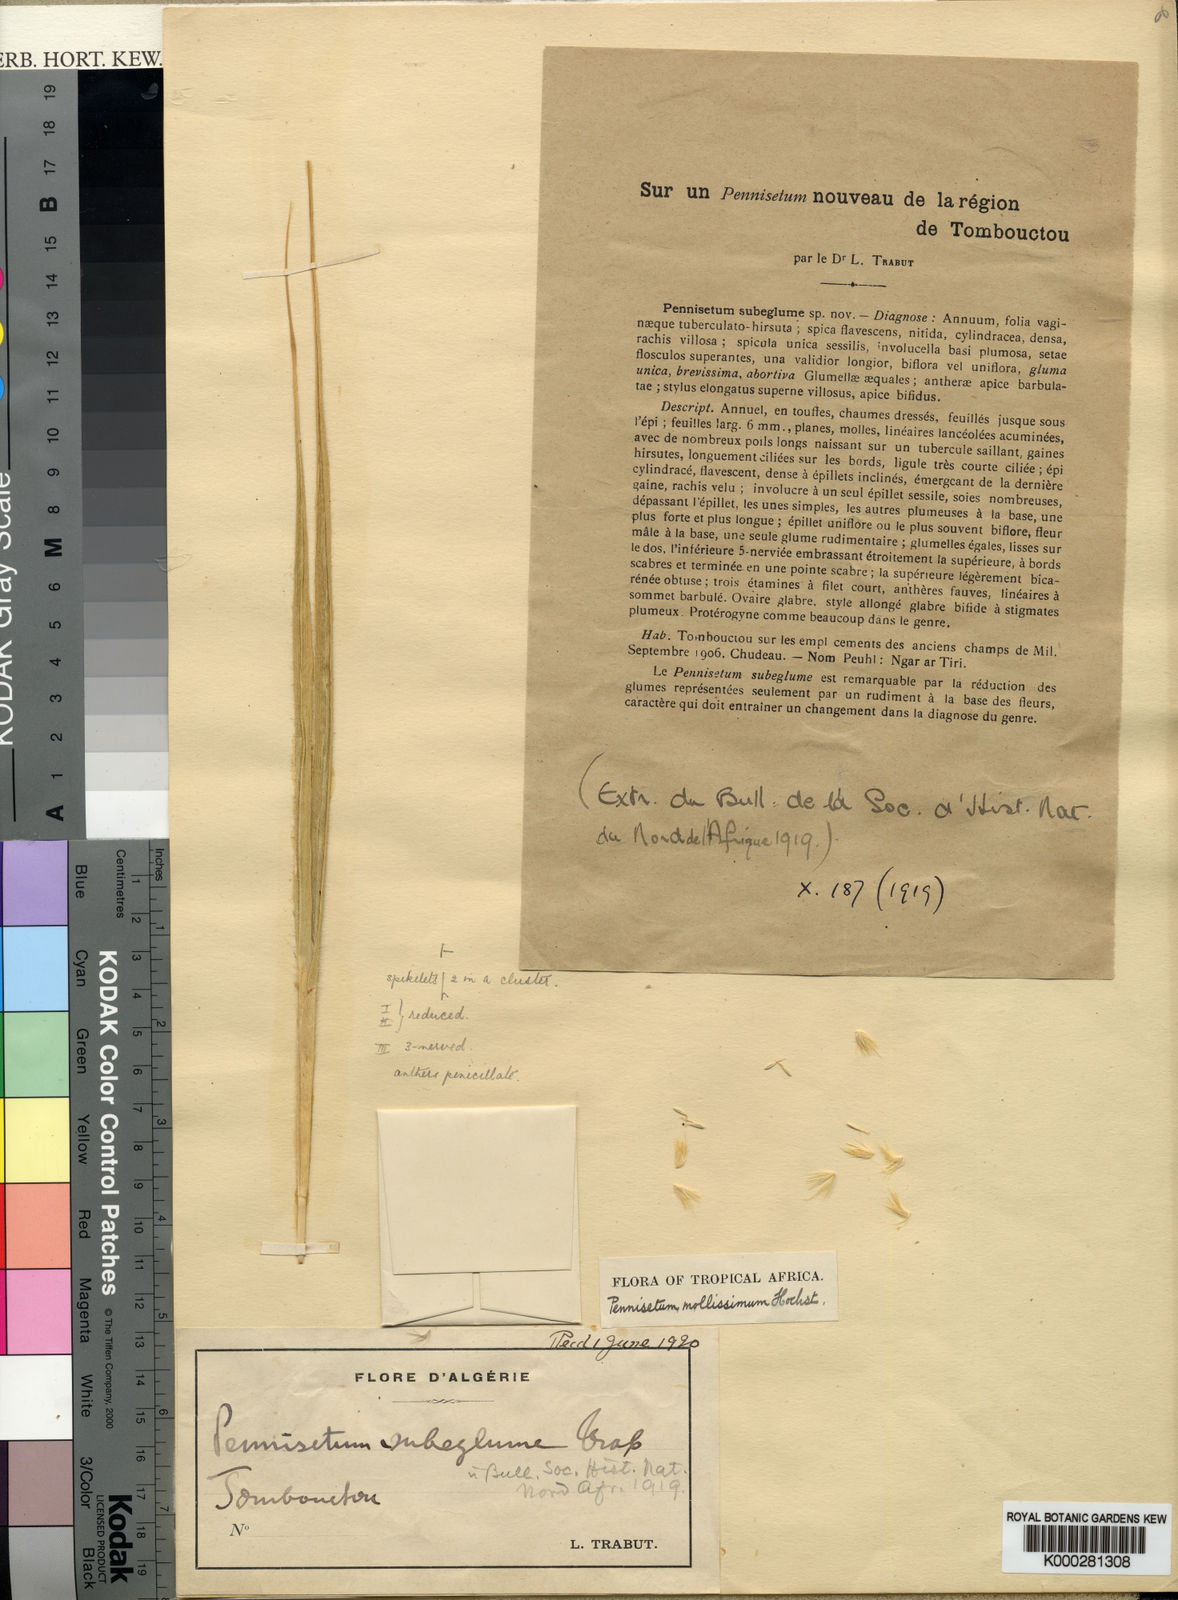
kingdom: Plantae
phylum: Tracheophyta
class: Liliopsida
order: Poales
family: Poaceae
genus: Cenchrus
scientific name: Cenchrus violaceus
